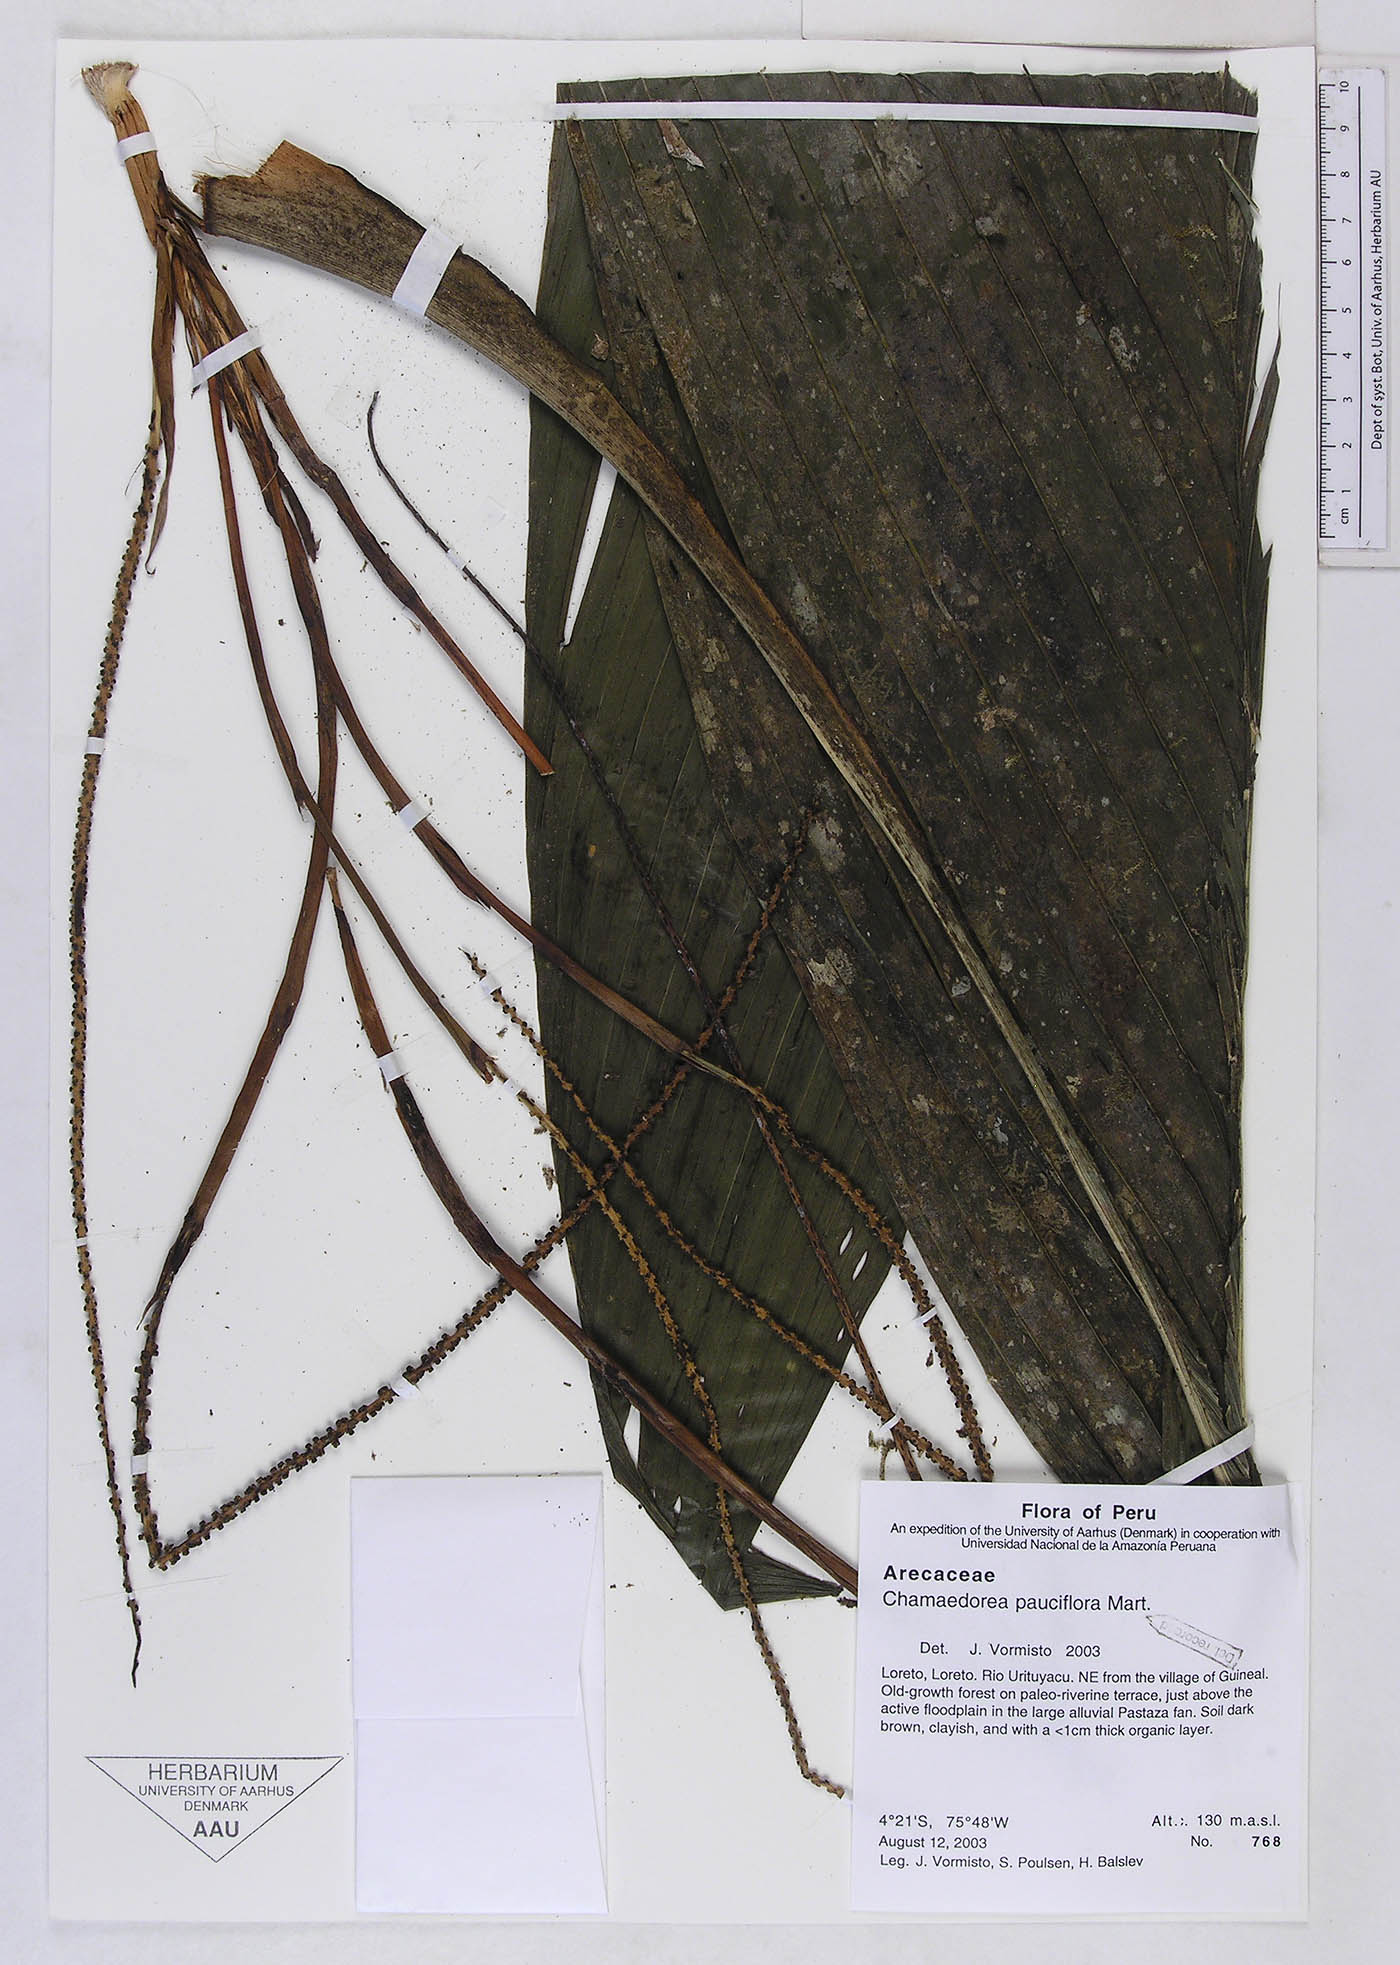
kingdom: Plantae
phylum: Tracheophyta
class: Liliopsida
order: Arecales
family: Arecaceae
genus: Chamaedorea
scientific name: Chamaedorea pauciflora
